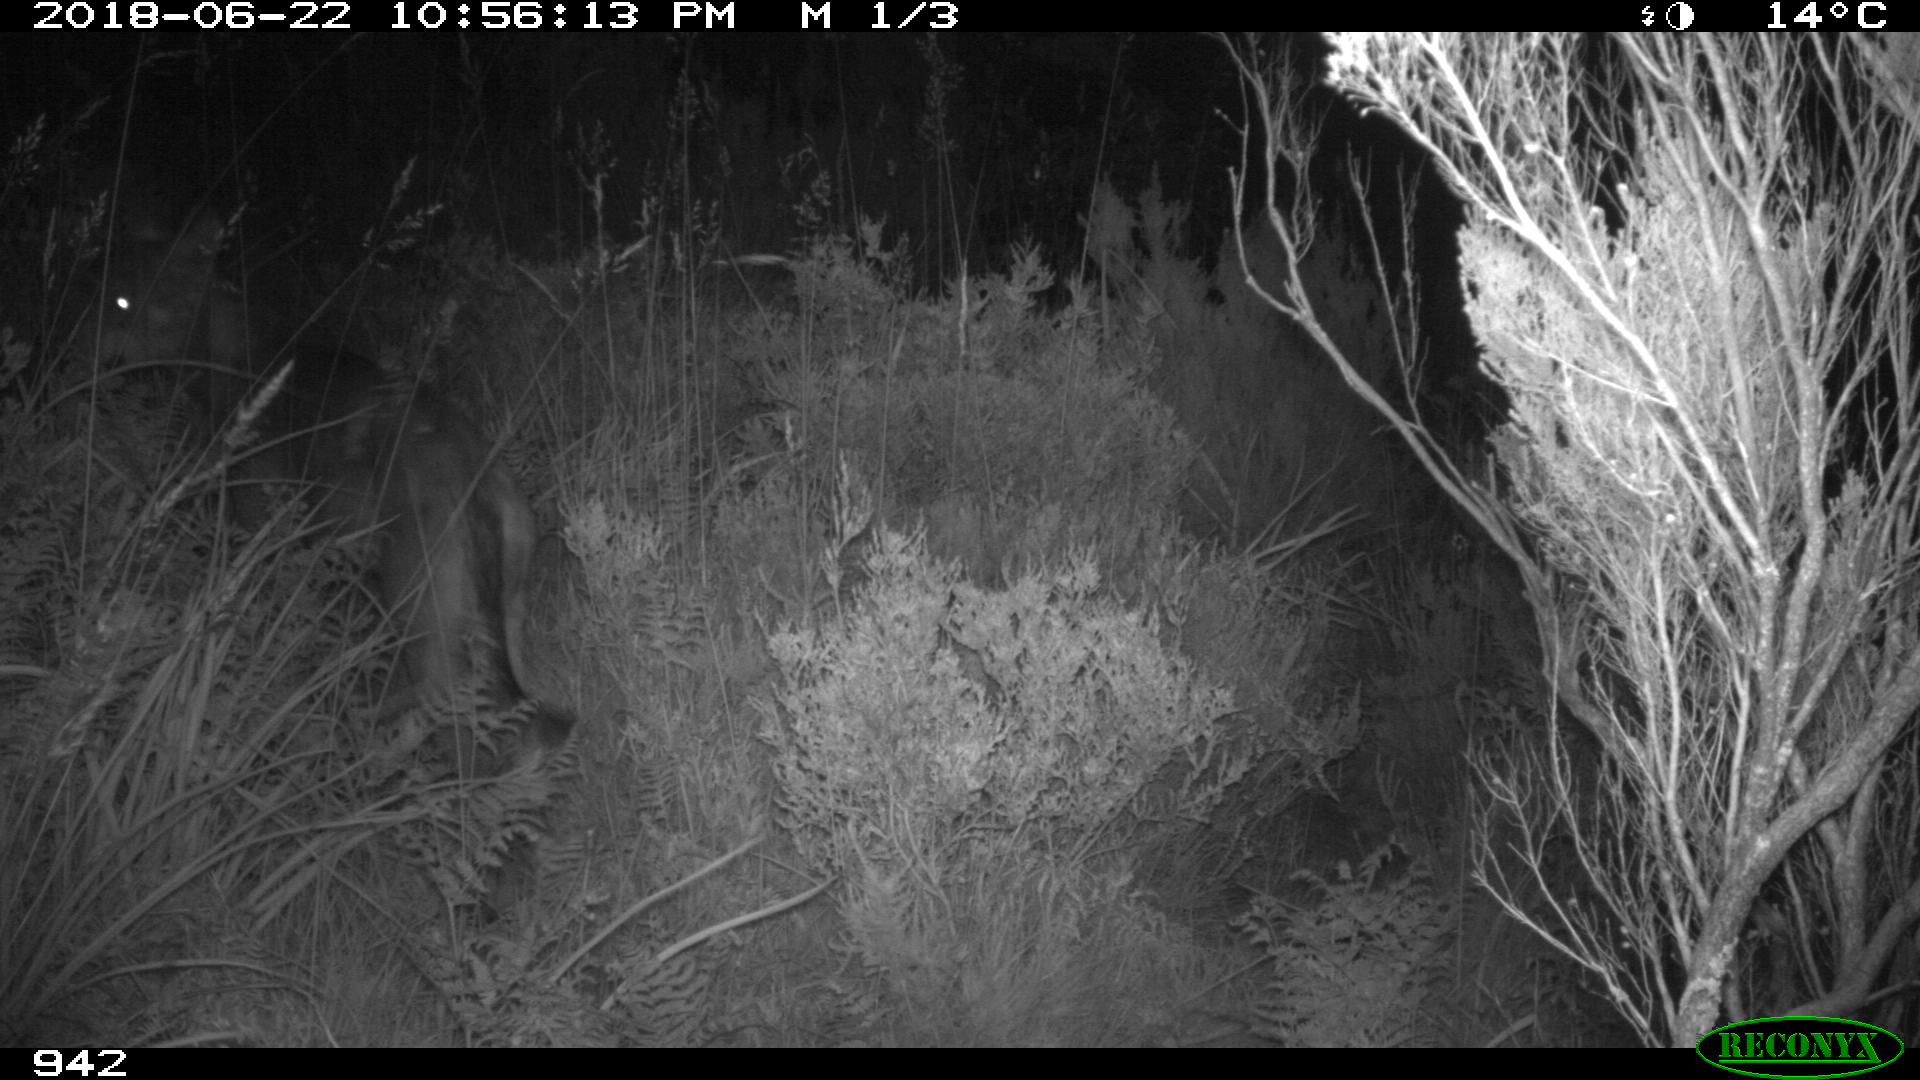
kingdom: Animalia
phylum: Chordata
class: Mammalia
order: Carnivora
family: Canidae
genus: Canis
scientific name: Canis lupus
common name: Gray wolf
